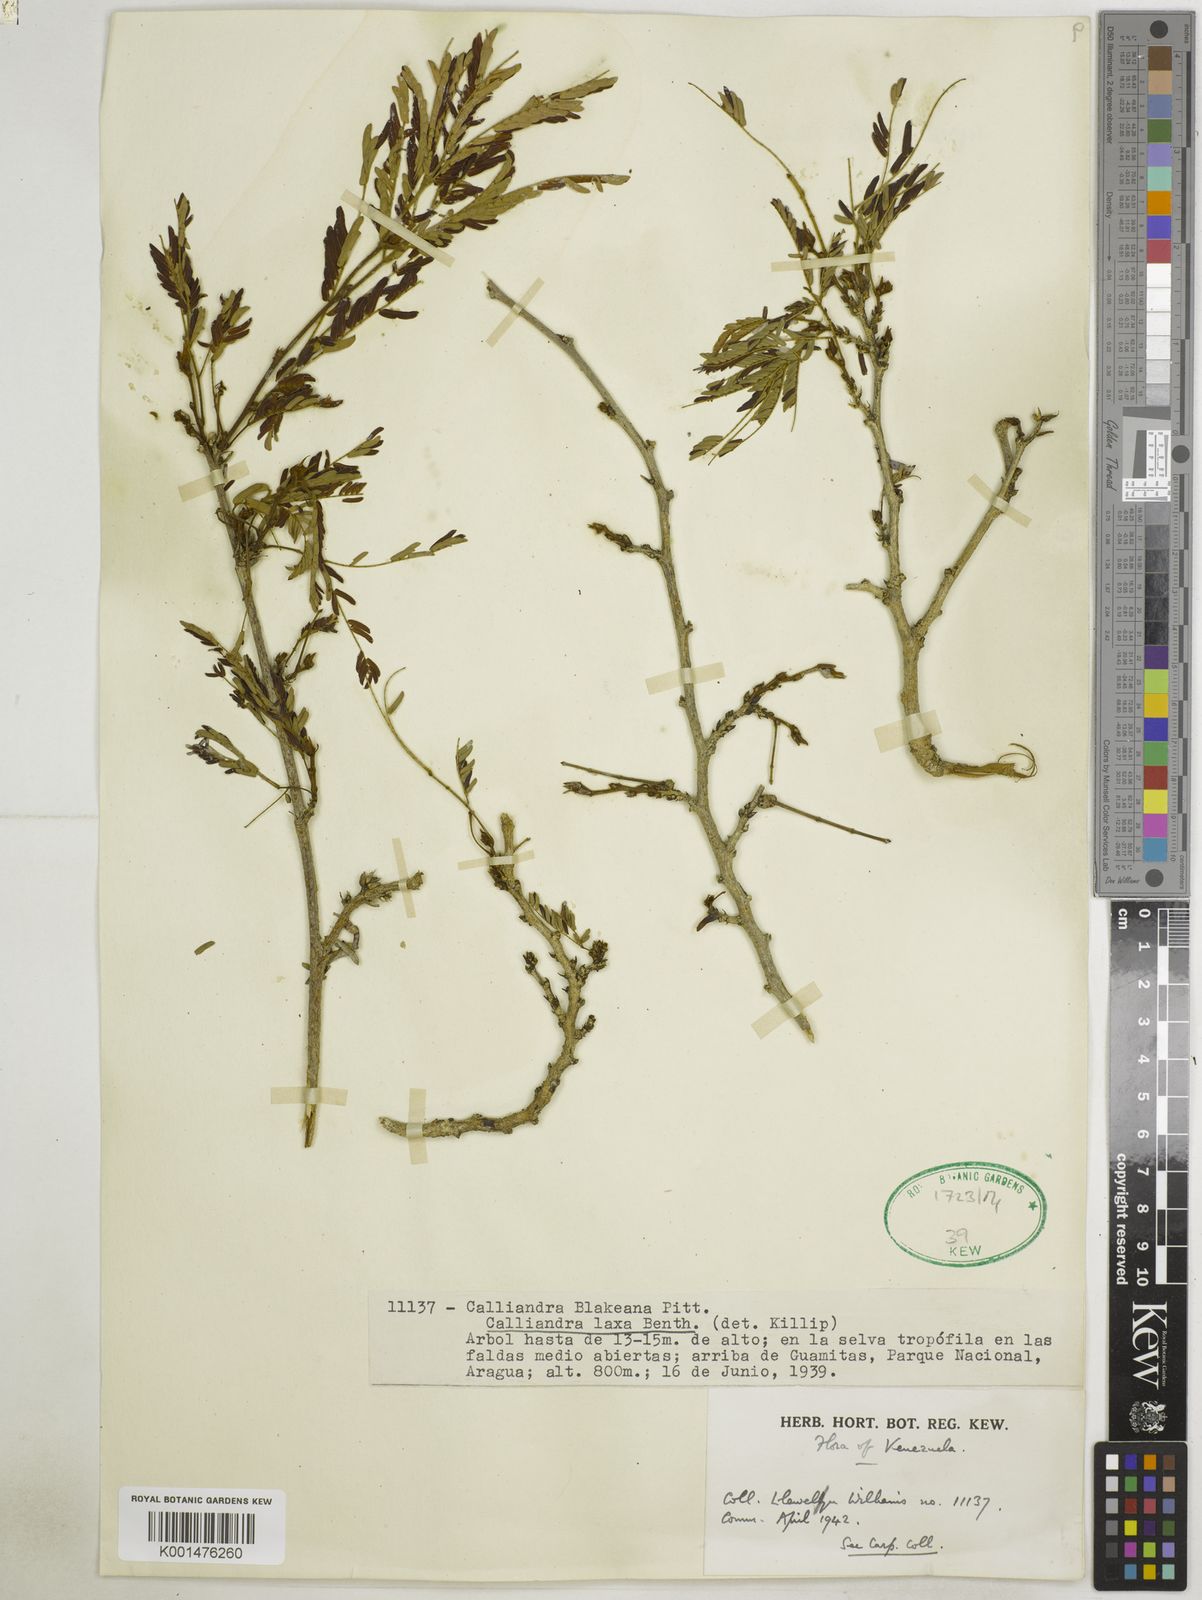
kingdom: Plantae
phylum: Tracheophyta
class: Magnoliopsida
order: Fabales
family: Fabaceae
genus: Calliandra
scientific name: Calliandra laxa
